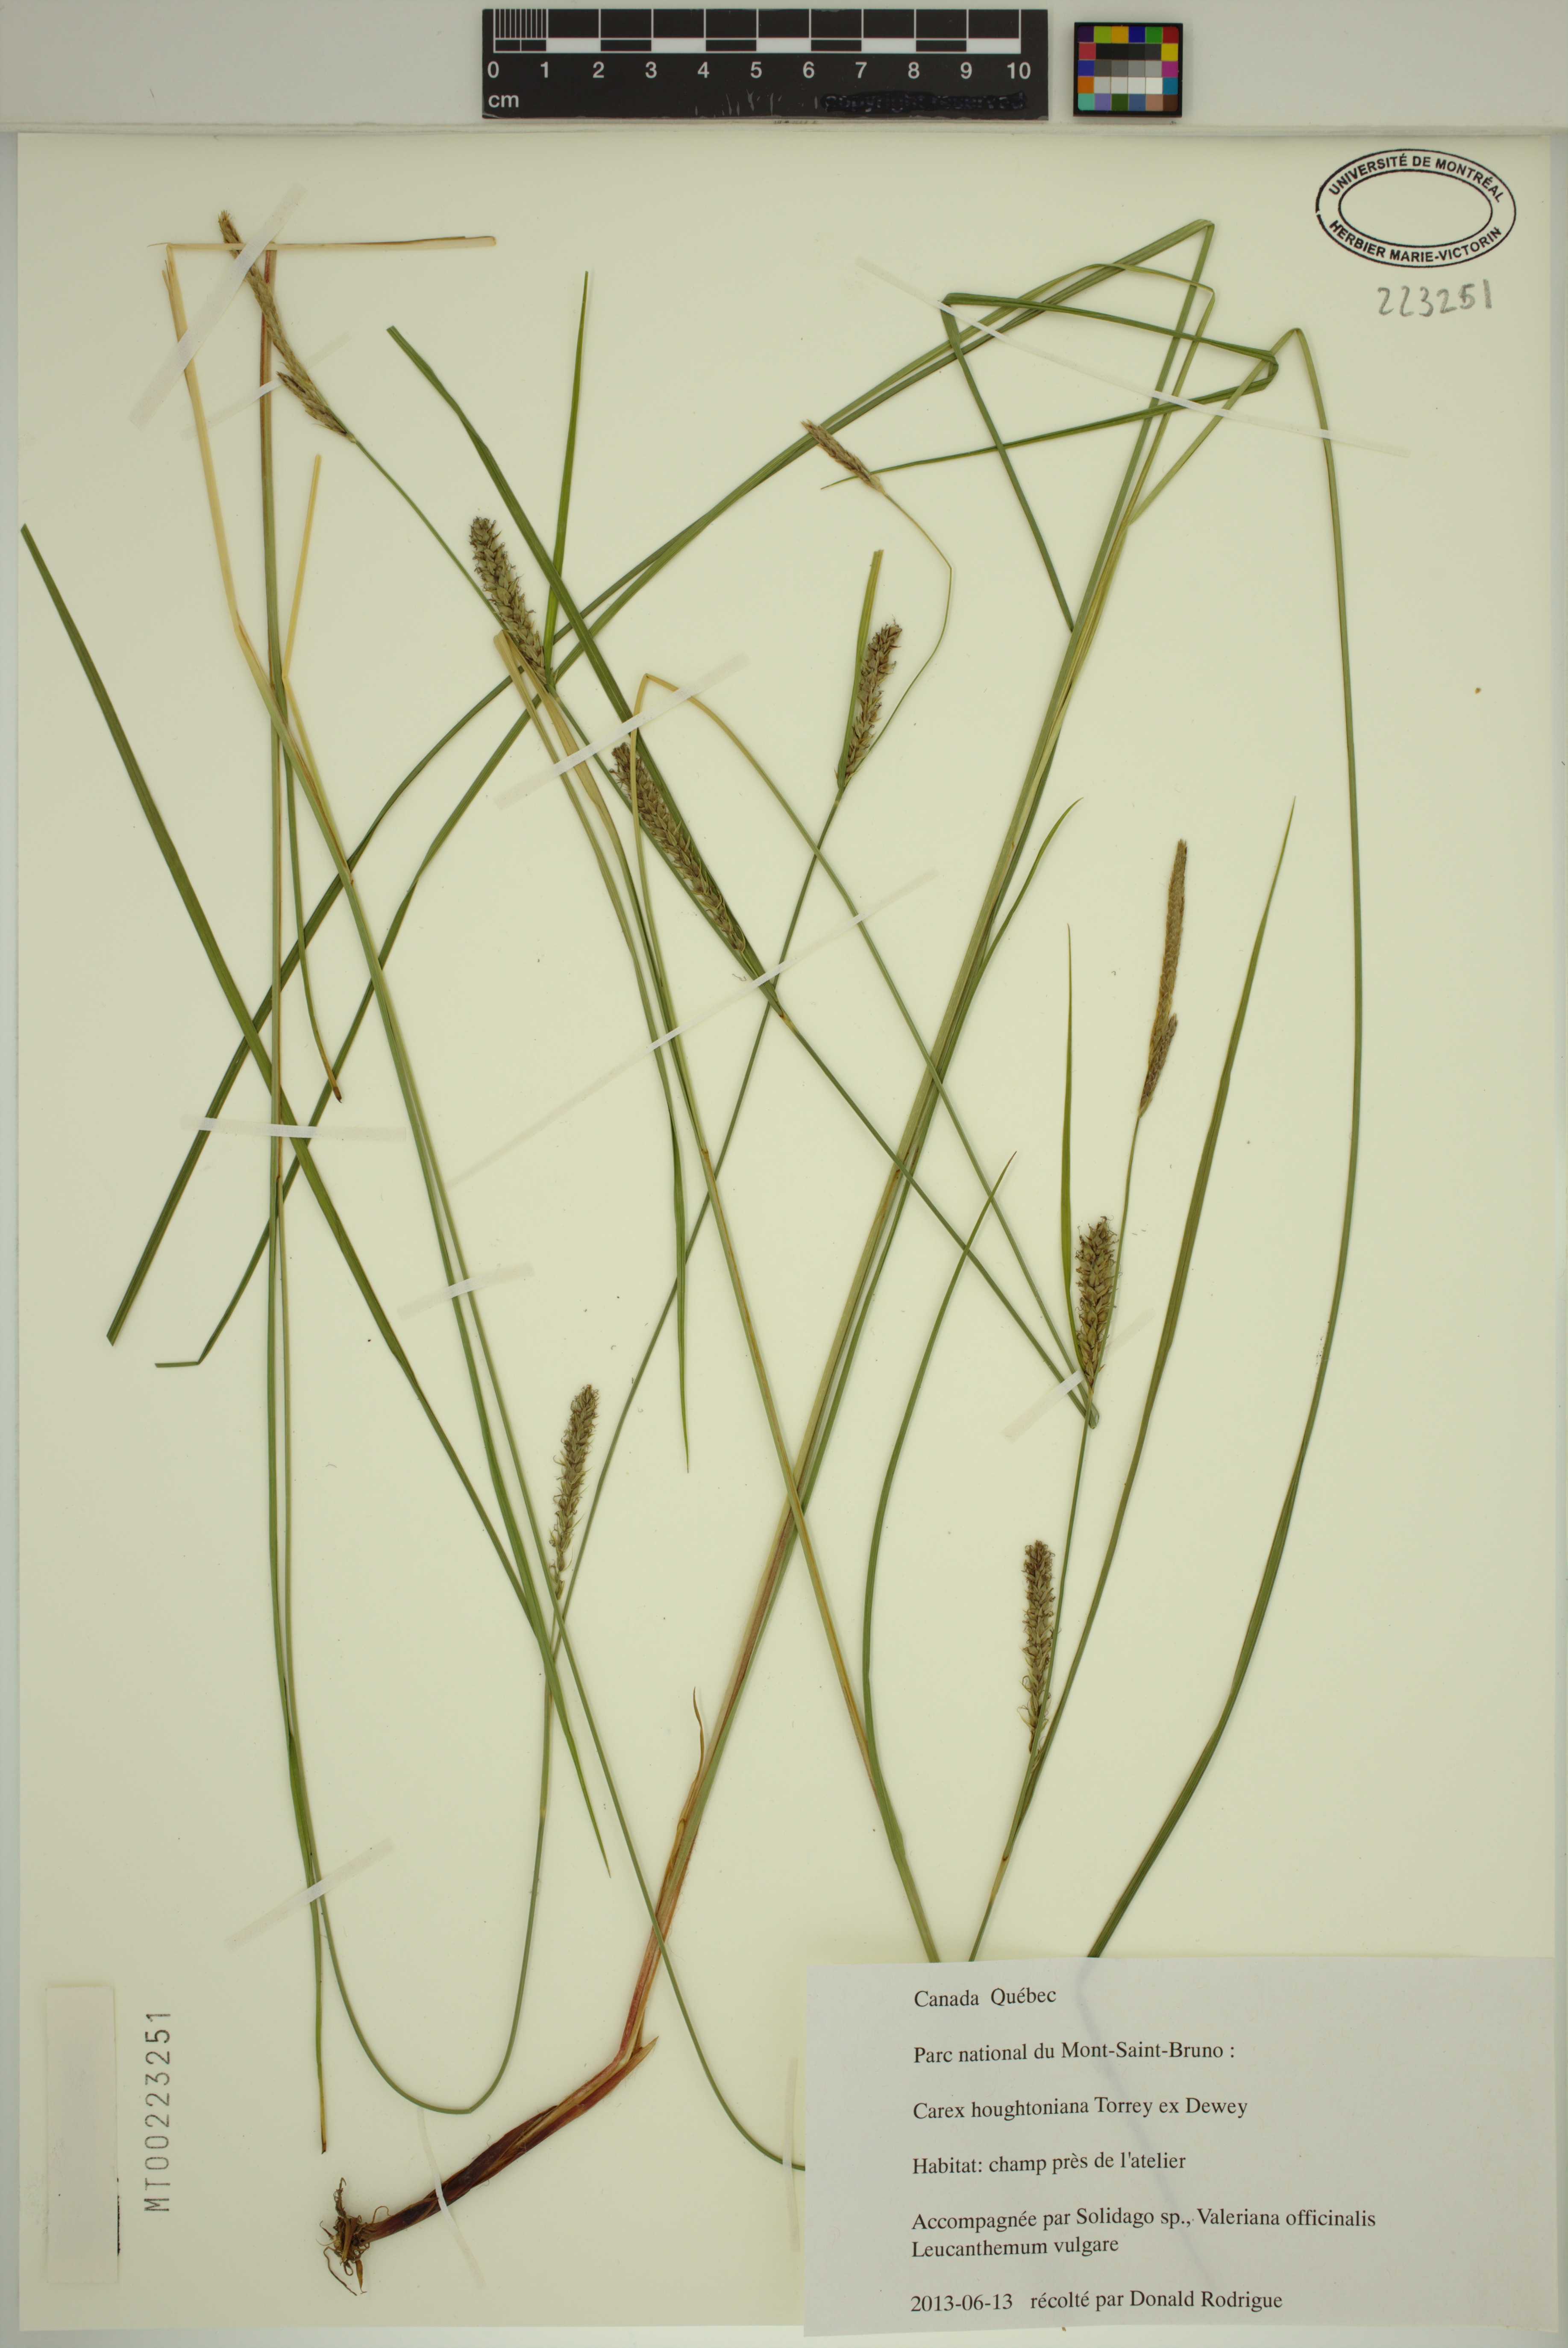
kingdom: Plantae
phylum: Tracheophyta
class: Liliopsida
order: Poales
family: Cyperaceae
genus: Carex
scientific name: Carex houghtoniana
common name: Houghton's sedge
